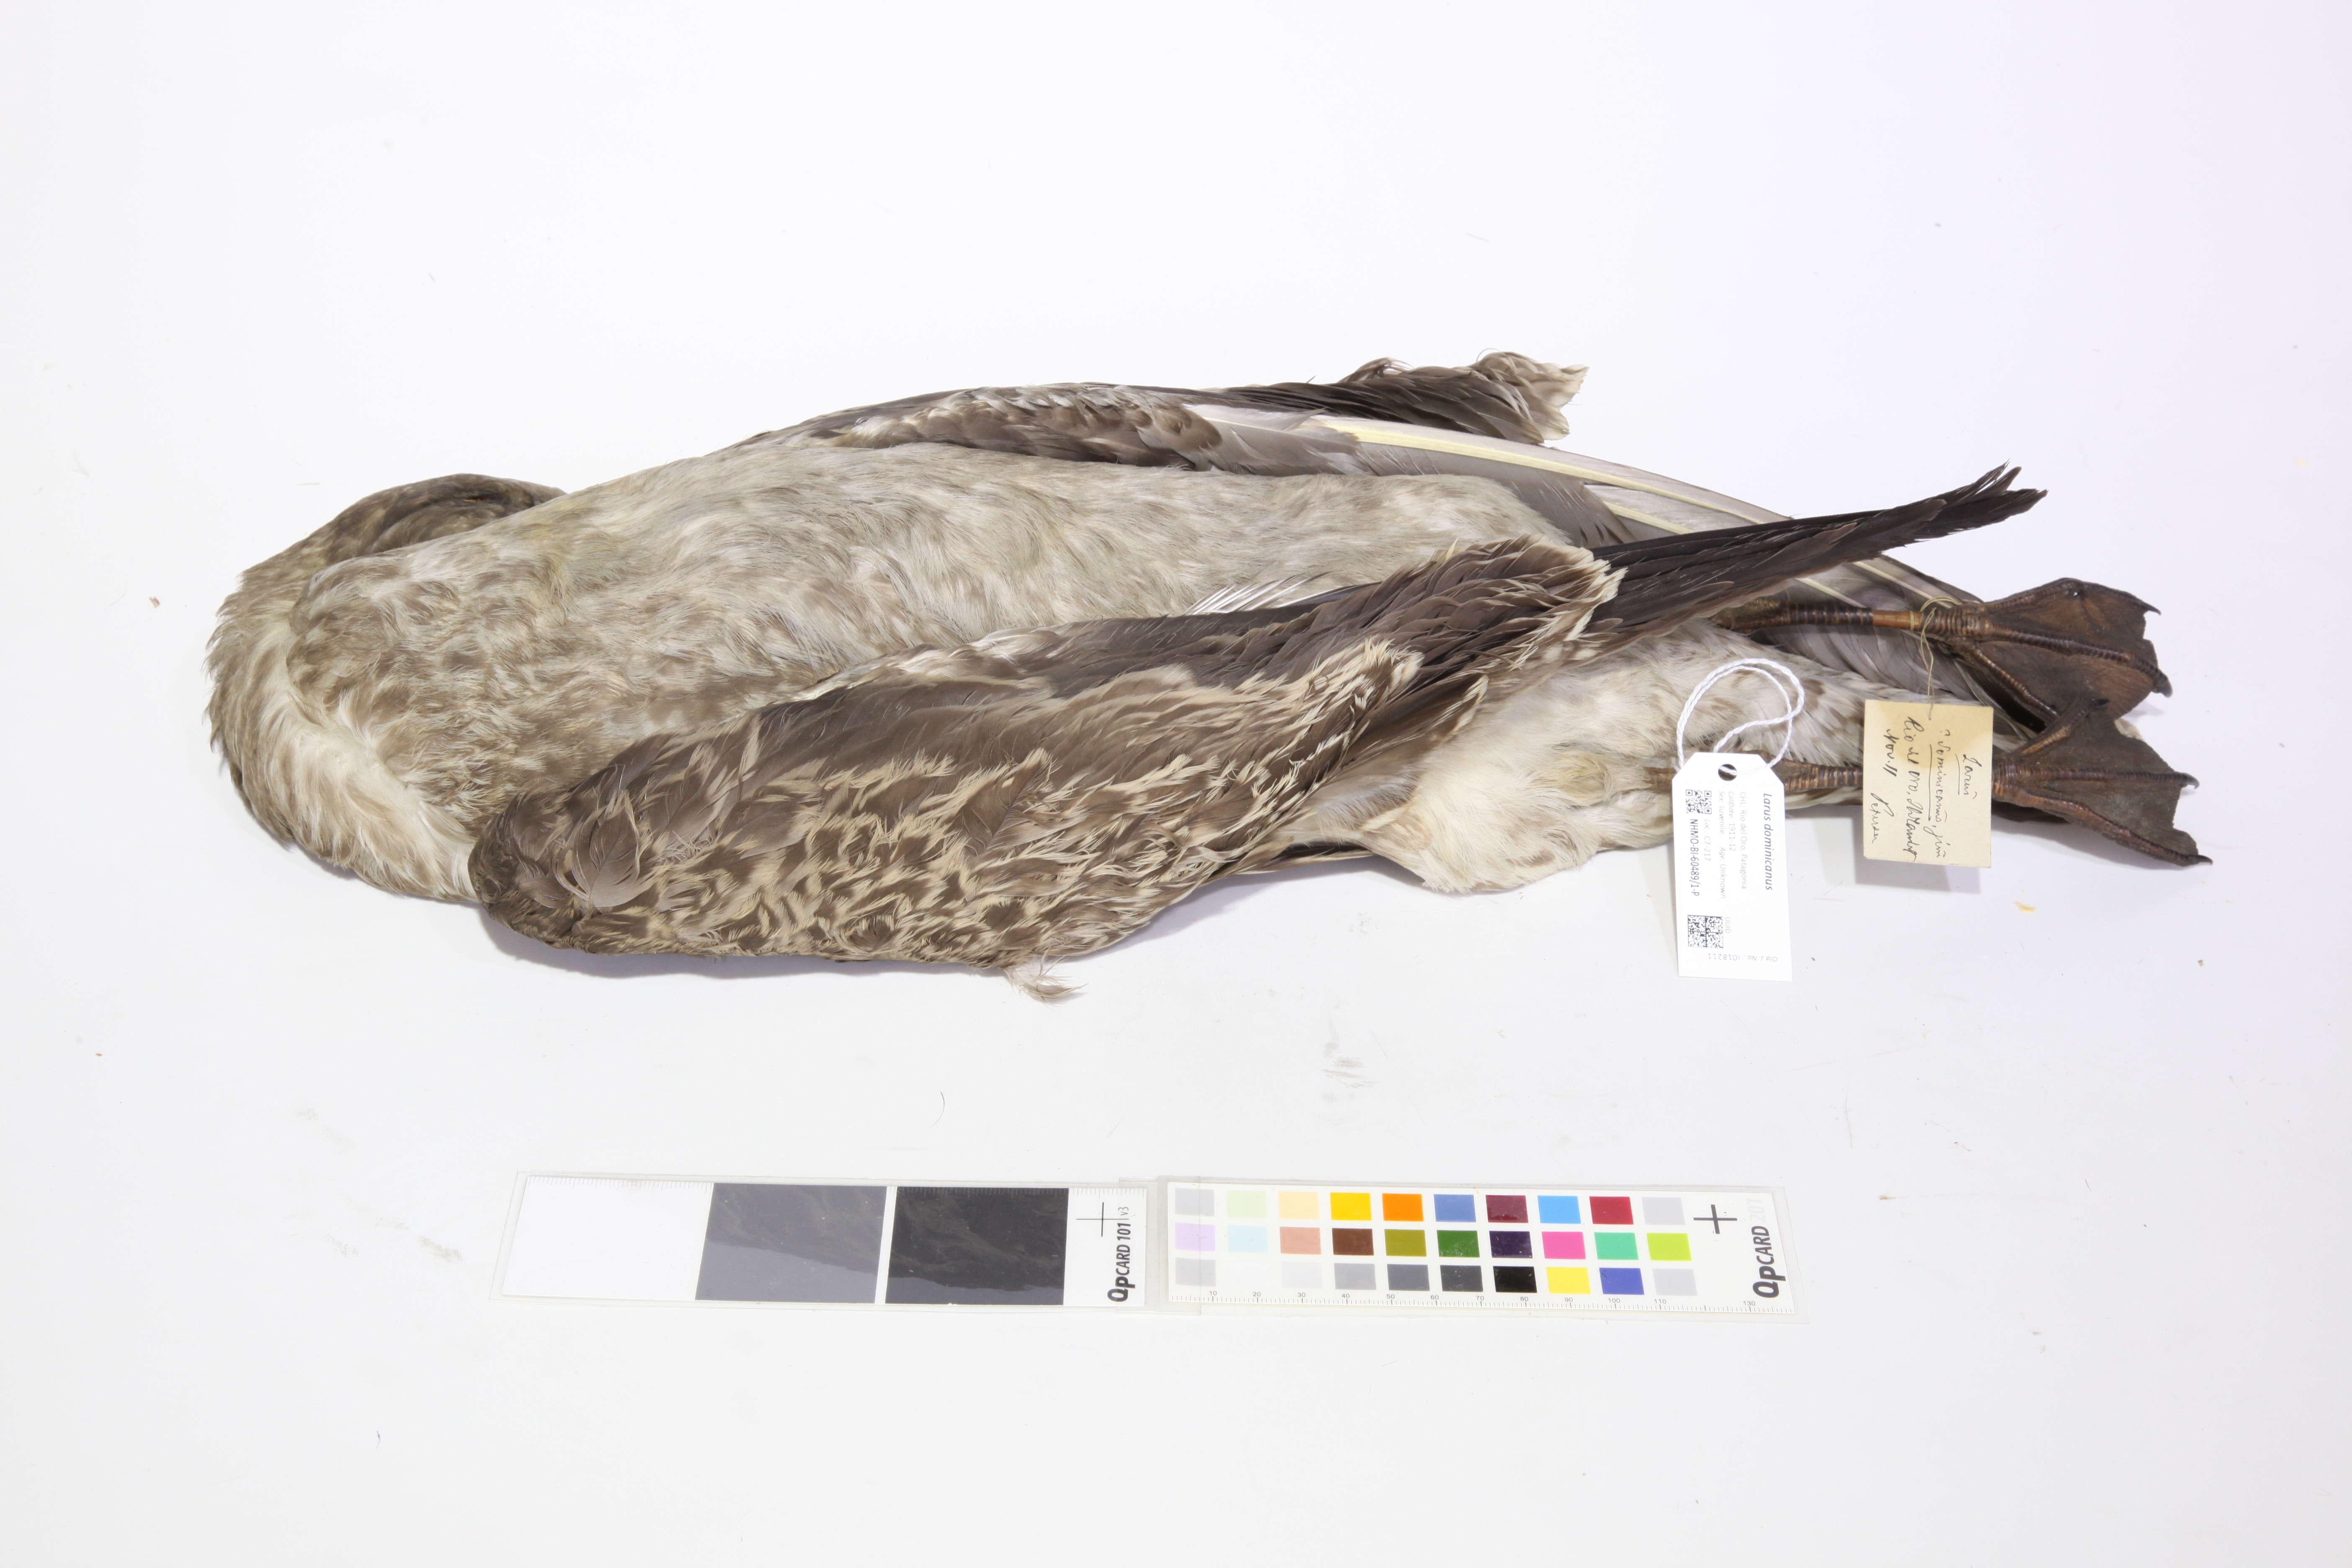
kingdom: Animalia
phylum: Chordata
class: Aves
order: Charadriiformes
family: Laridae
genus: Larus
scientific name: Larus dominicanus
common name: Kelp gull
